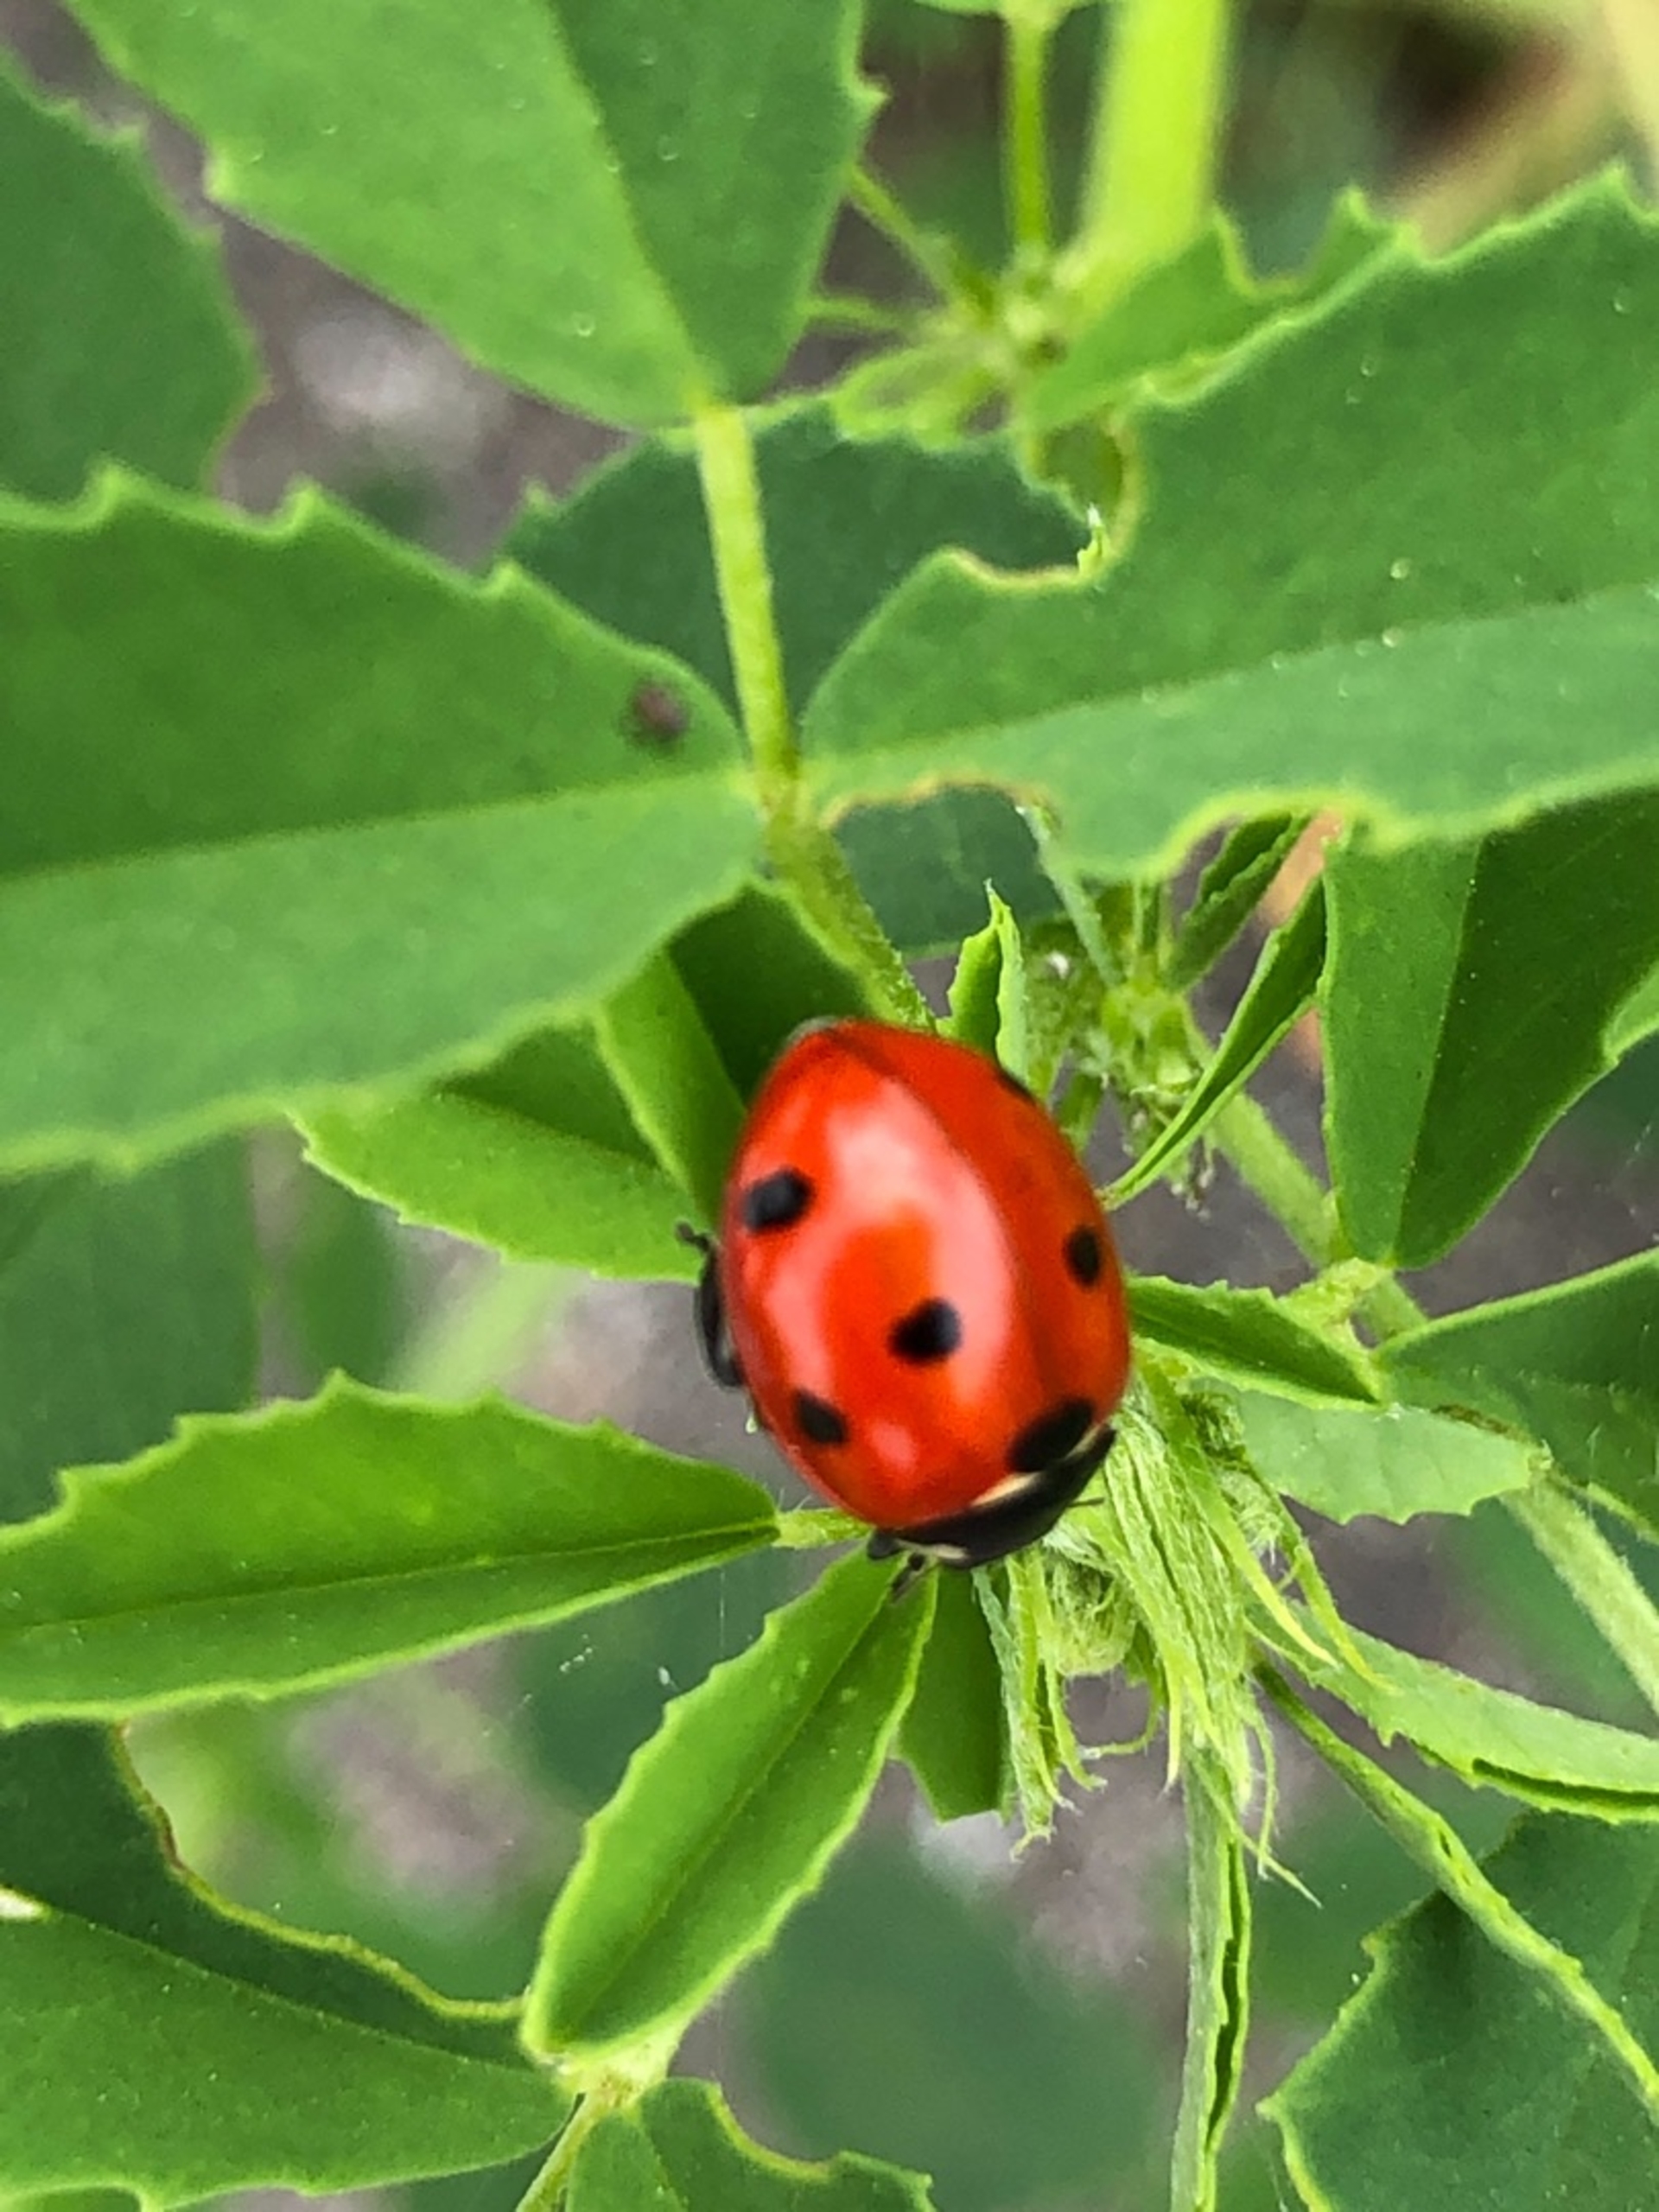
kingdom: Animalia
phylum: Arthropoda
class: Insecta
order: Coleoptera
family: Coccinellidae
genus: Coccinella
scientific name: Coccinella septempunctata
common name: Syvplettet mariehøne
